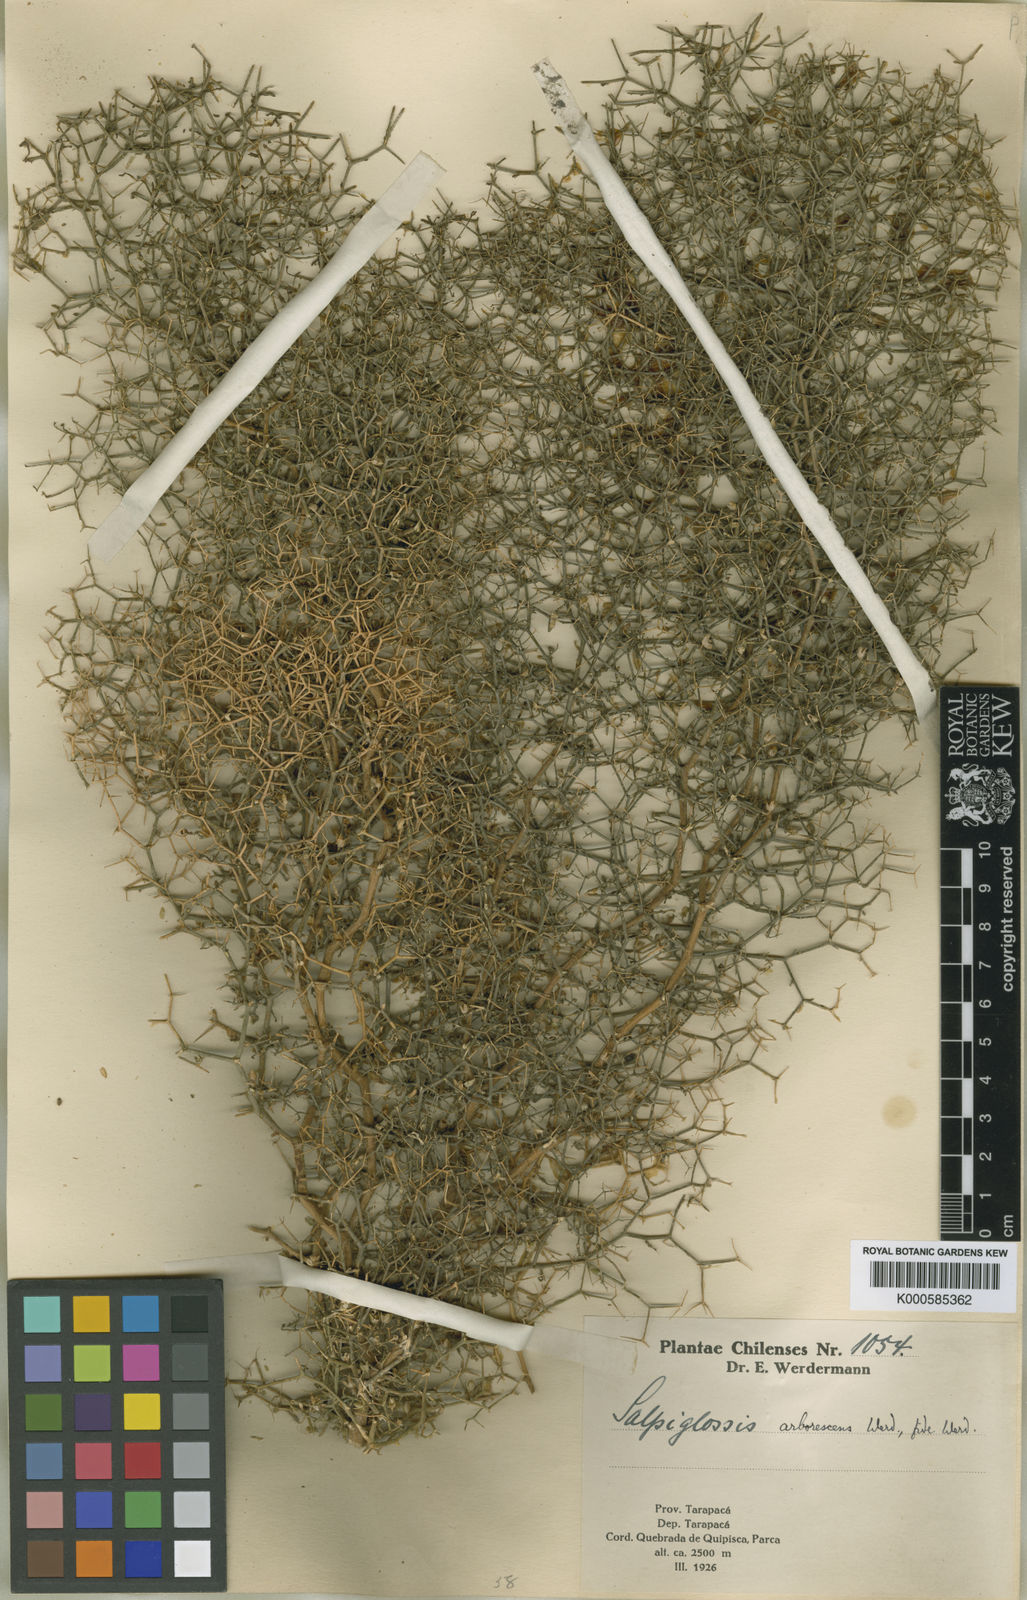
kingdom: Plantae
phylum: Tracheophyta
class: Magnoliopsida
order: Solanales
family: Solanaceae
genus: Salpiglossis
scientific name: Salpiglossis
